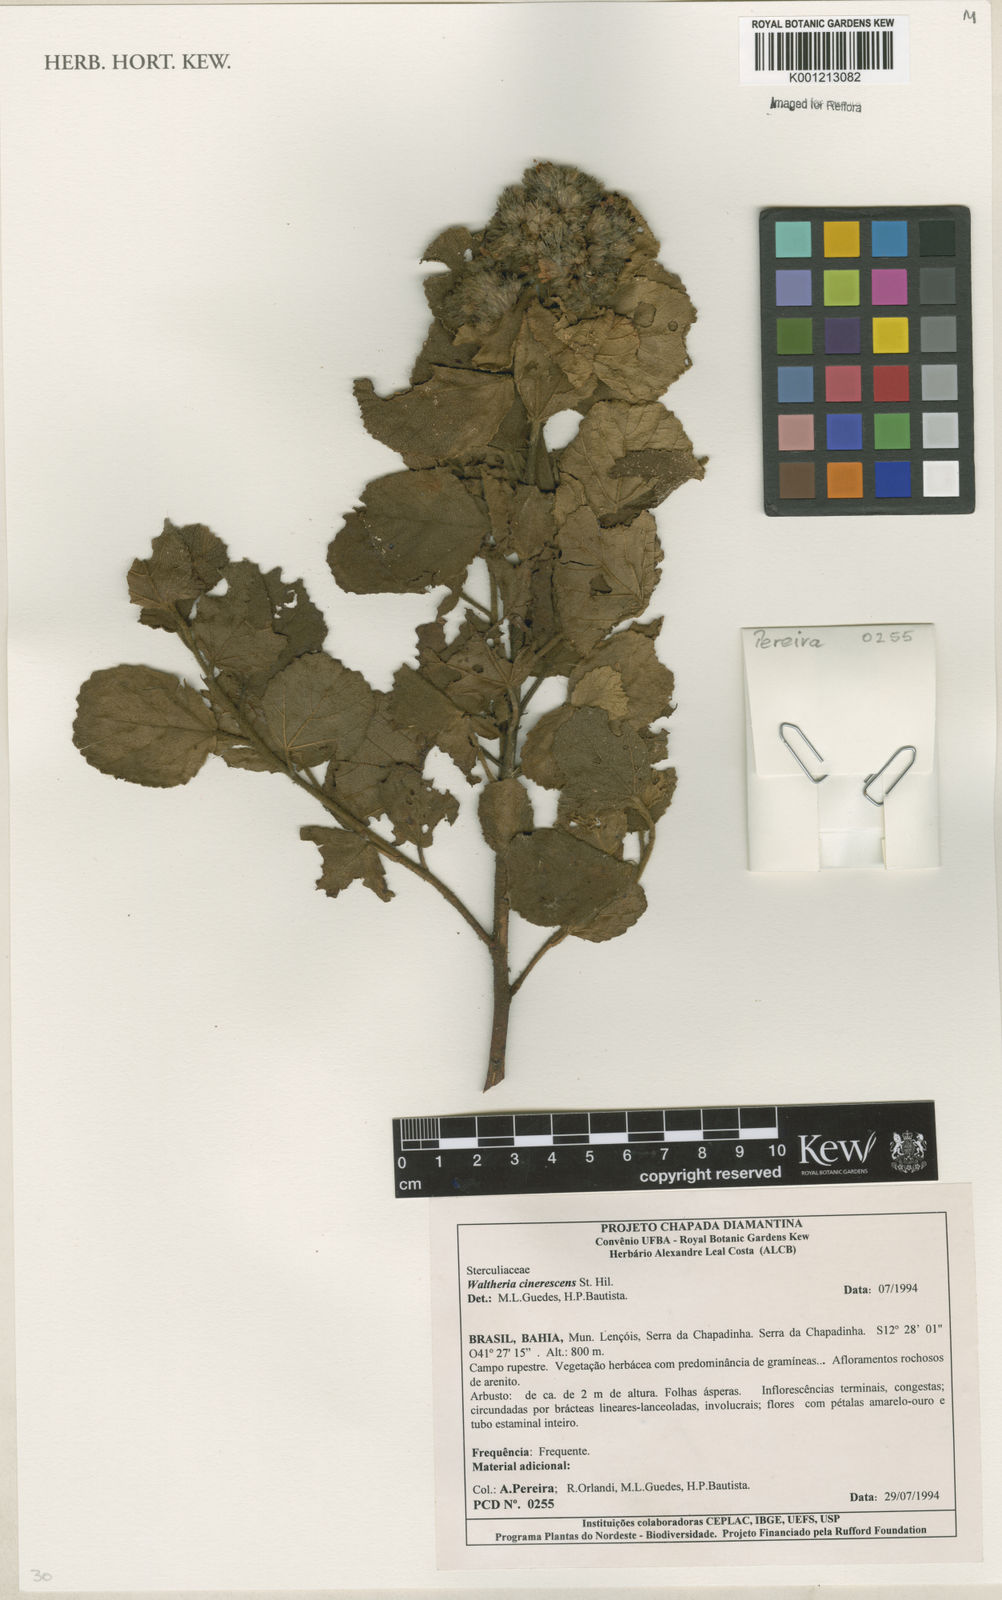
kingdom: Plantae
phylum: Tracheophyta
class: Magnoliopsida
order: Malvales
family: Malvaceae
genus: Waltheria
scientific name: Waltheria cinerescens
